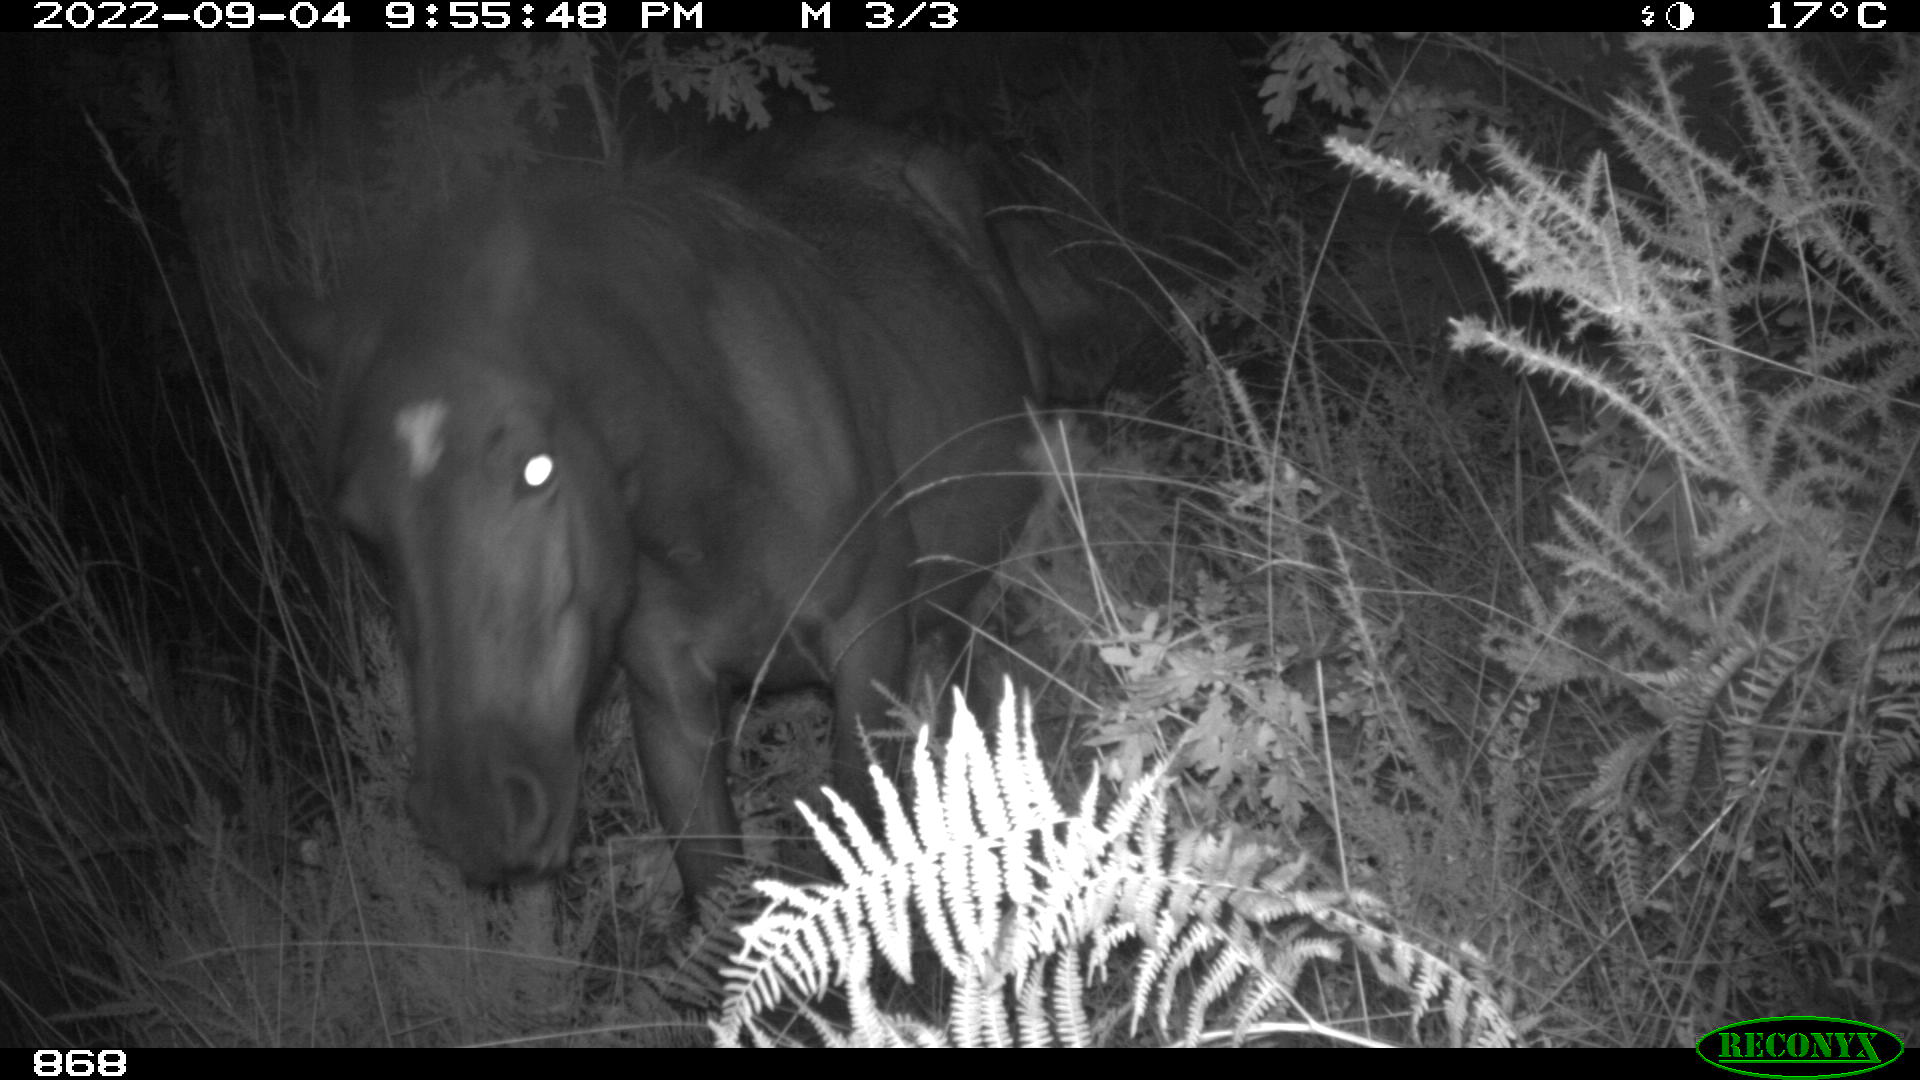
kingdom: Animalia
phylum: Chordata
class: Mammalia
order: Perissodactyla
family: Equidae
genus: Equus
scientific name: Equus caballus
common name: Horse
